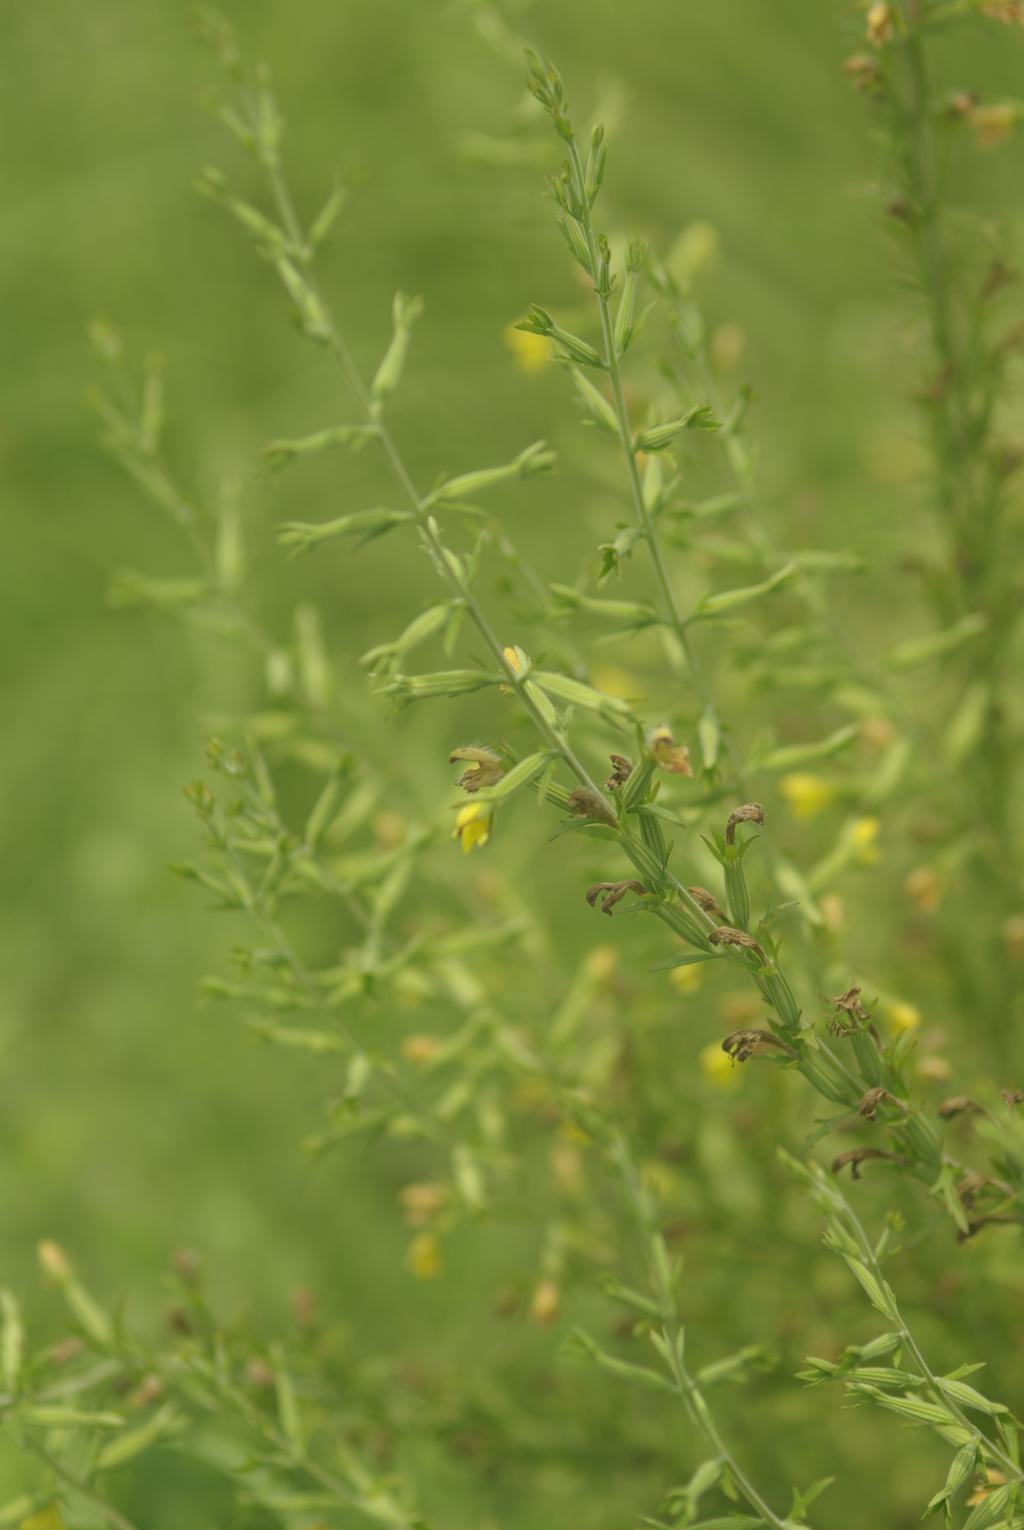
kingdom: Plantae
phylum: Tracheophyta
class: Magnoliopsida
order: Lamiales
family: Orobanchaceae
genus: Siphonostegia
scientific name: Siphonostegia chinensis
